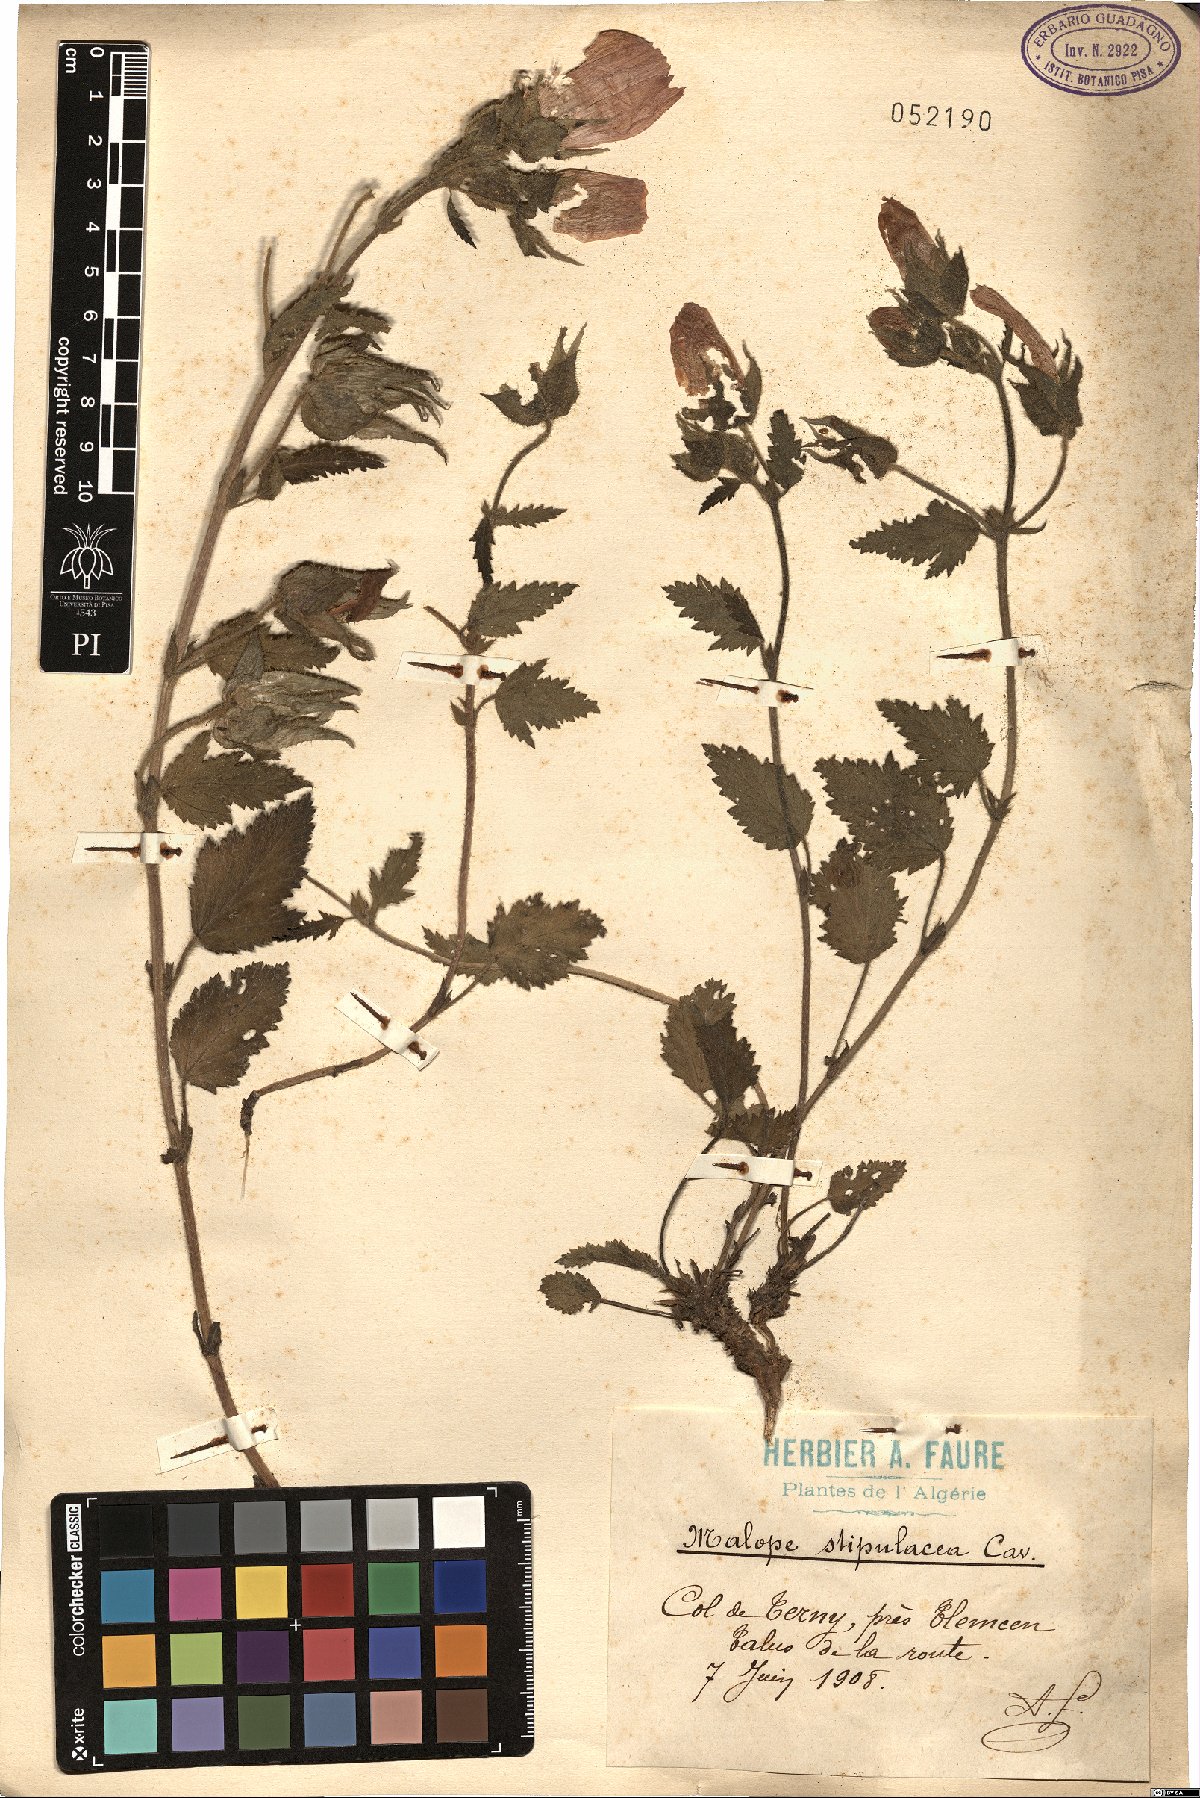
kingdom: Plantae
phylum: Tracheophyta
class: Magnoliopsida
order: Malvales
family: Malvaceae
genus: Malope
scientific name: Malope malacoides
